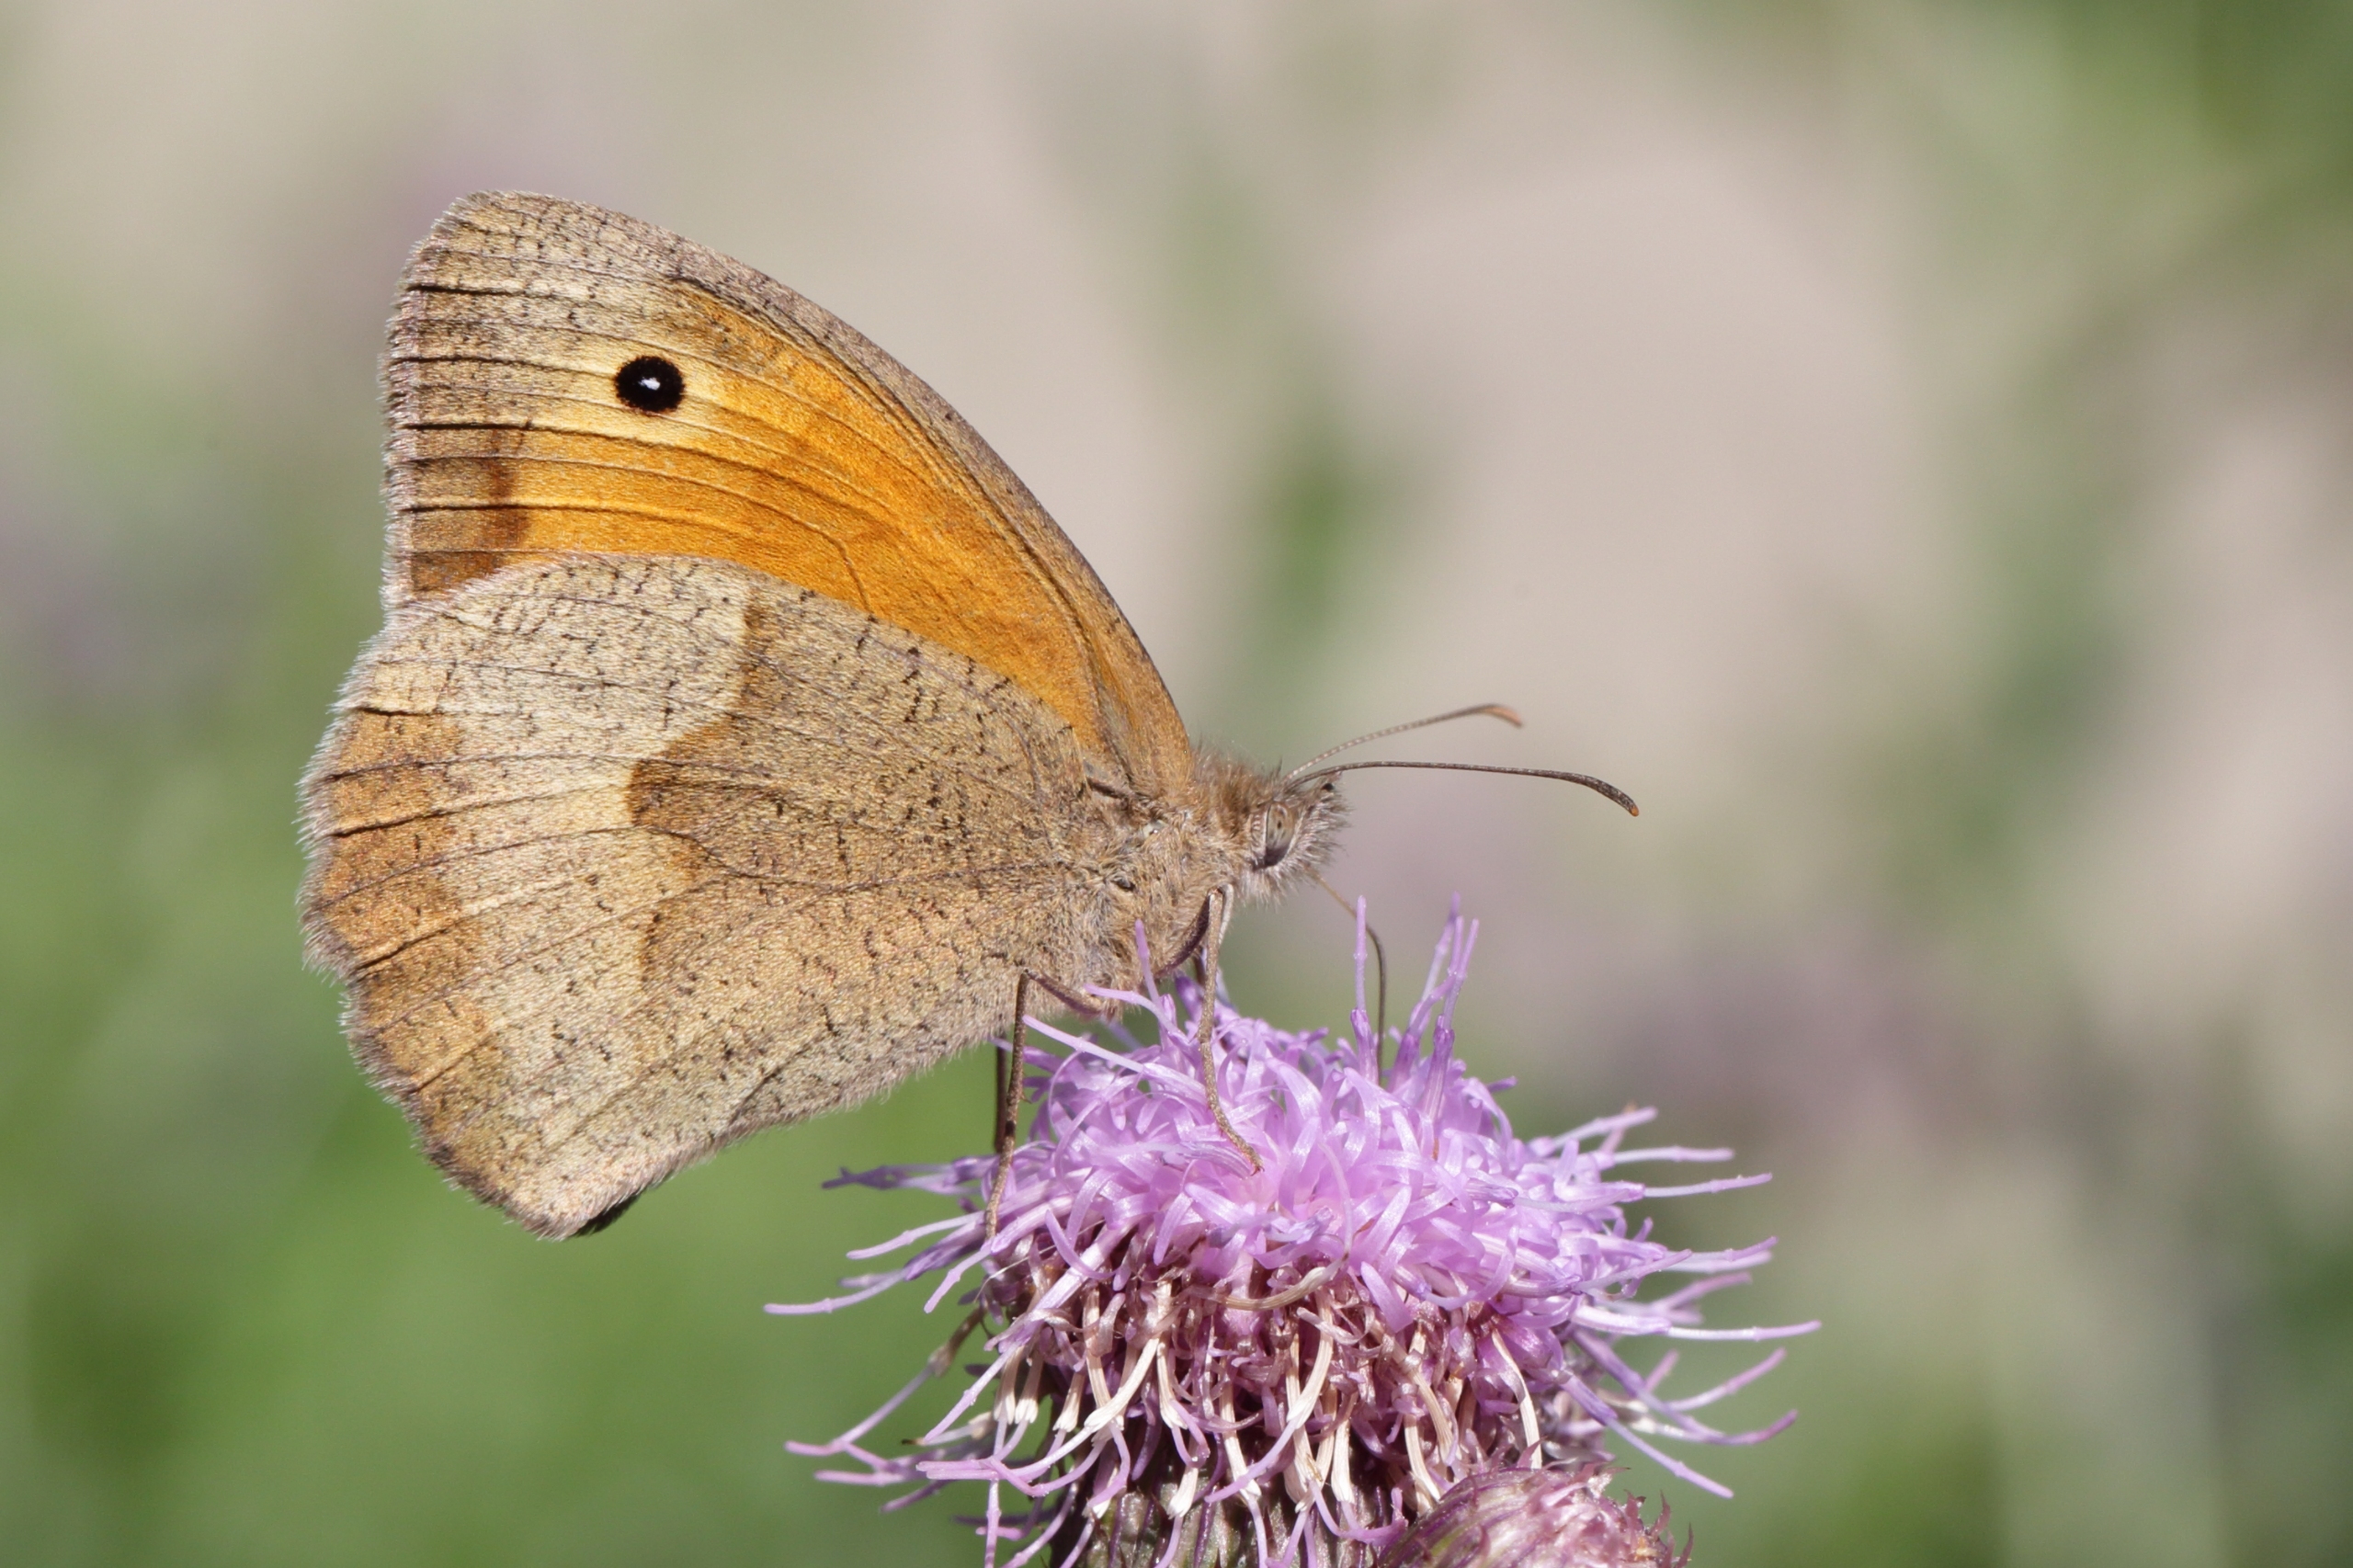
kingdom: Animalia
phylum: Arthropoda
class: Insecta
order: Lepidoptera
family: Nymphalidae
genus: Maniola
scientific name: Maniola jurtina
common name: Græsrandøje
